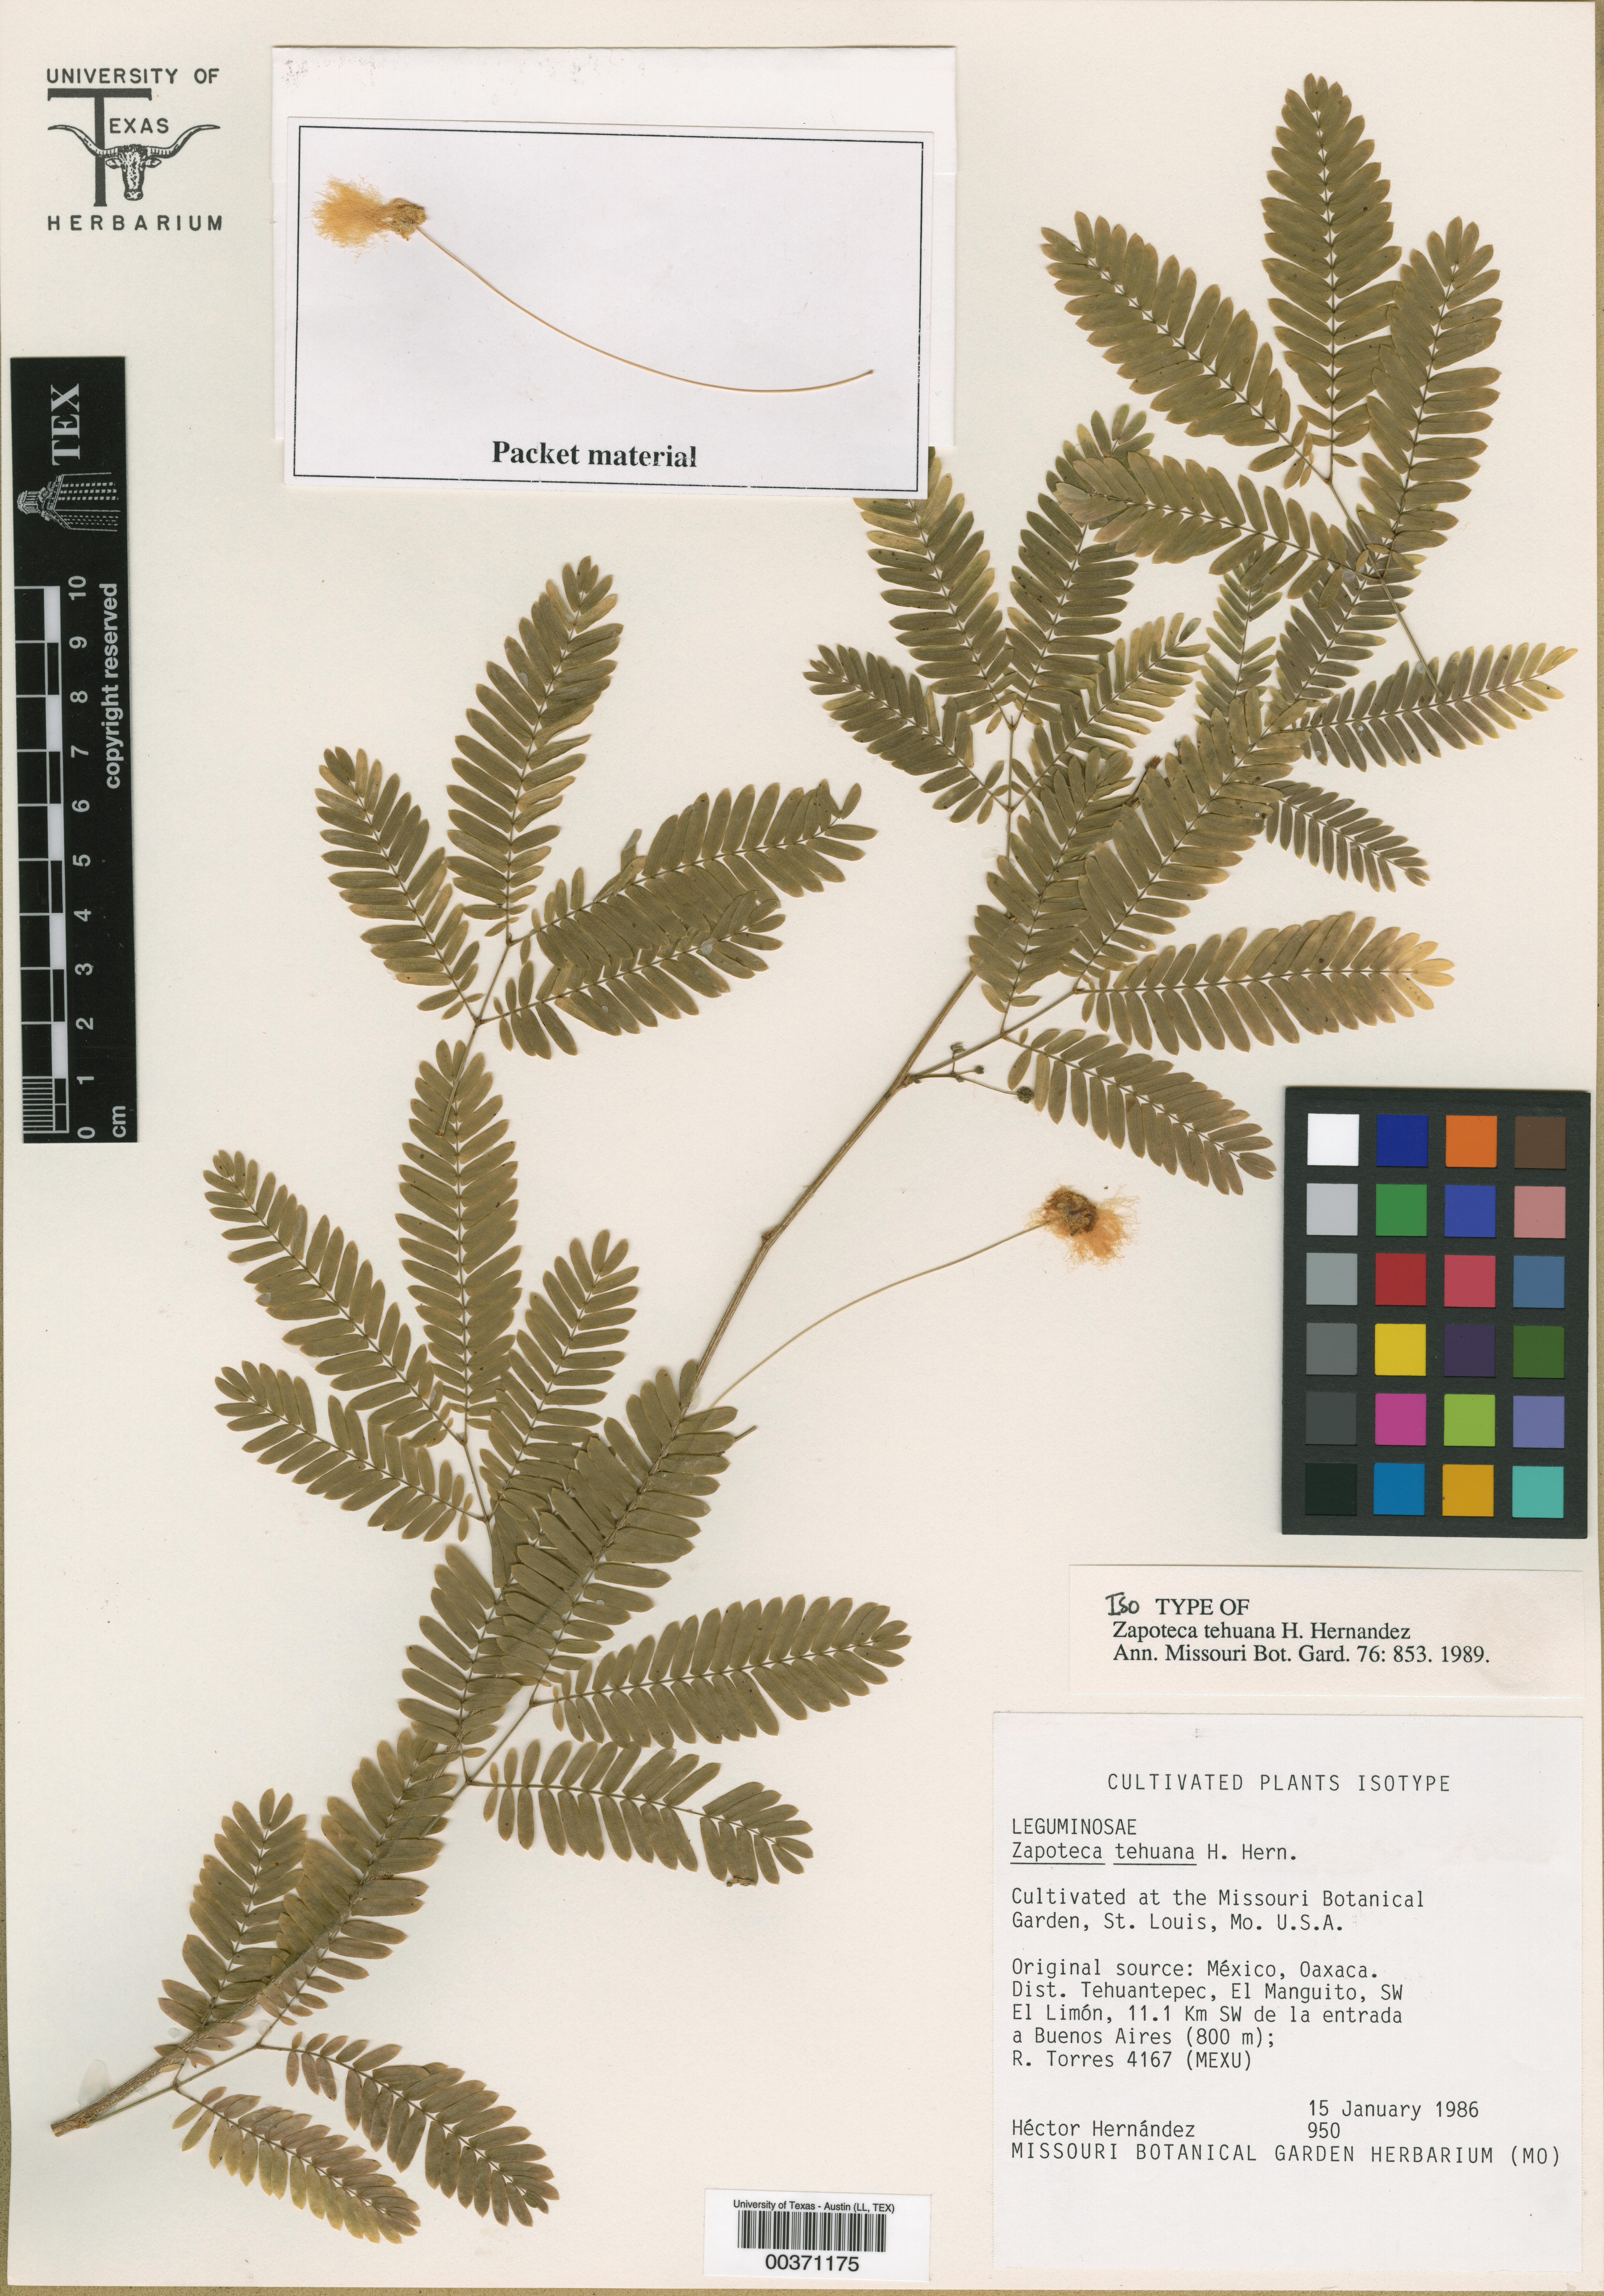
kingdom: Plantae
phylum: Tracheophyta
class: Magnoliopsida
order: Fabales
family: Fabaceae
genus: Zapoteca
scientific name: Zapoteca tehuana
